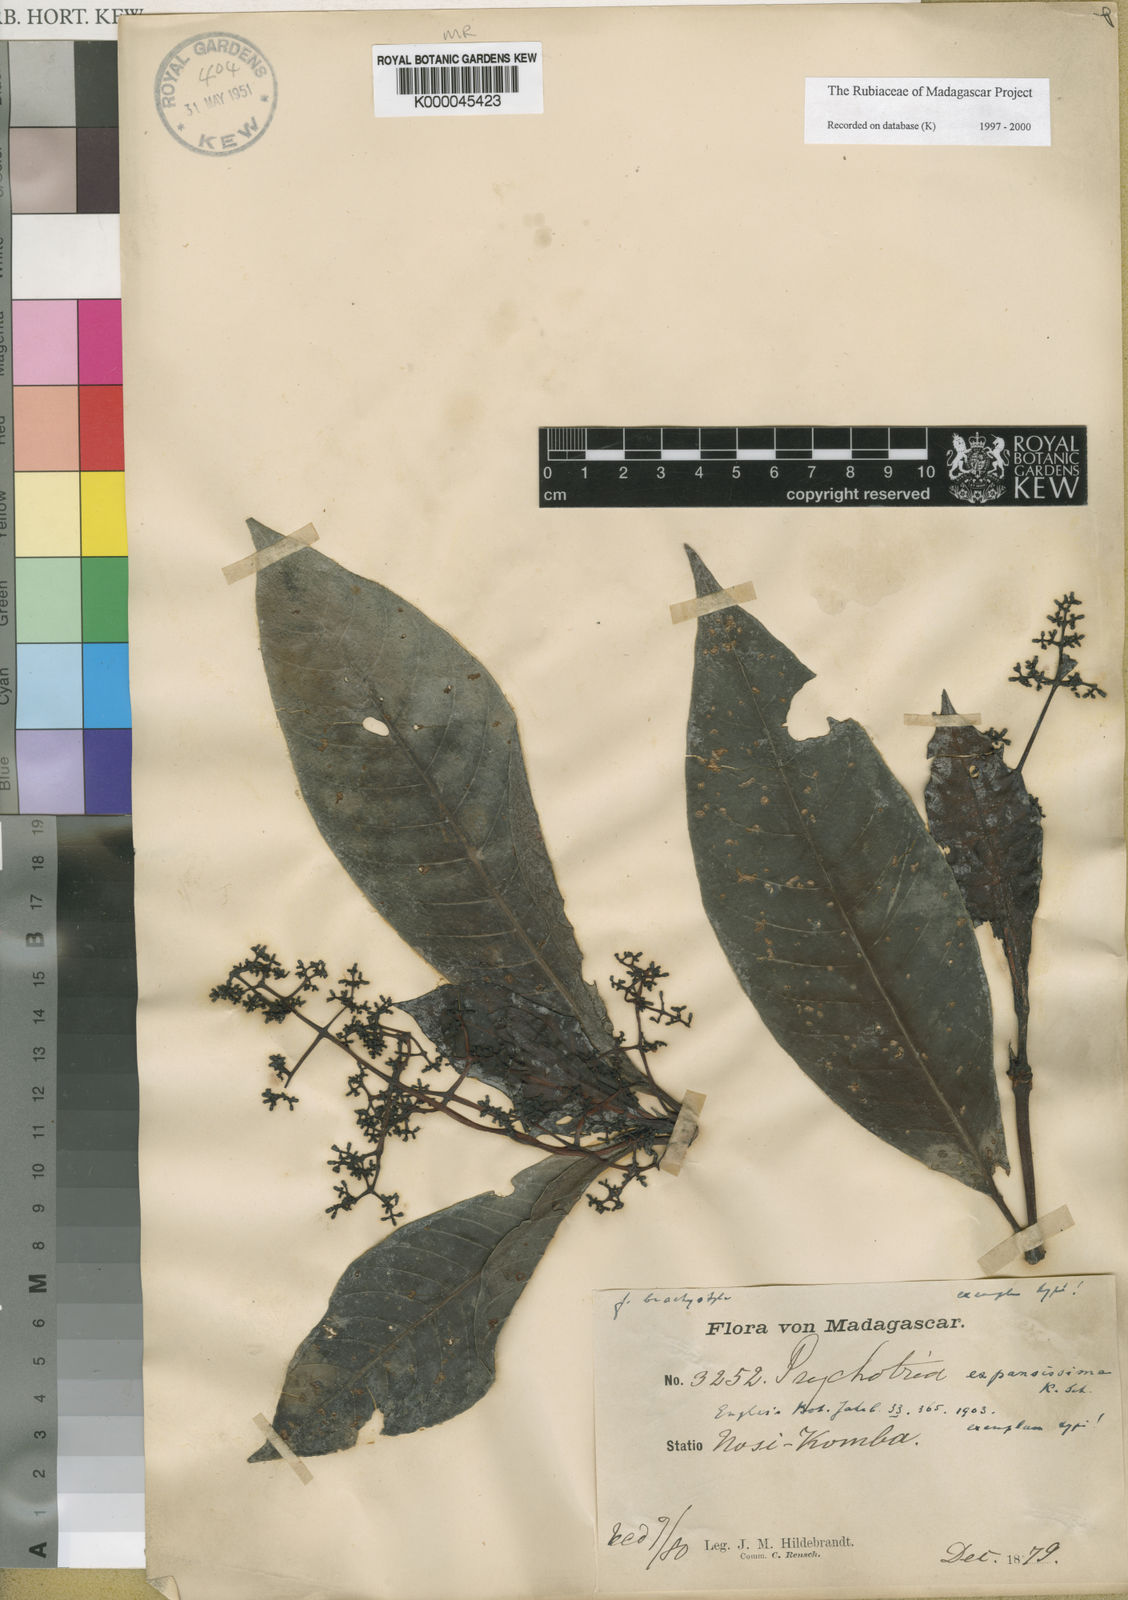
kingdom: Plantae
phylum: Tracheophyta
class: Magnoliopsida
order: Gentianales
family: Rubiaceae
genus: Psychotria
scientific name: Psychotria expansissima
